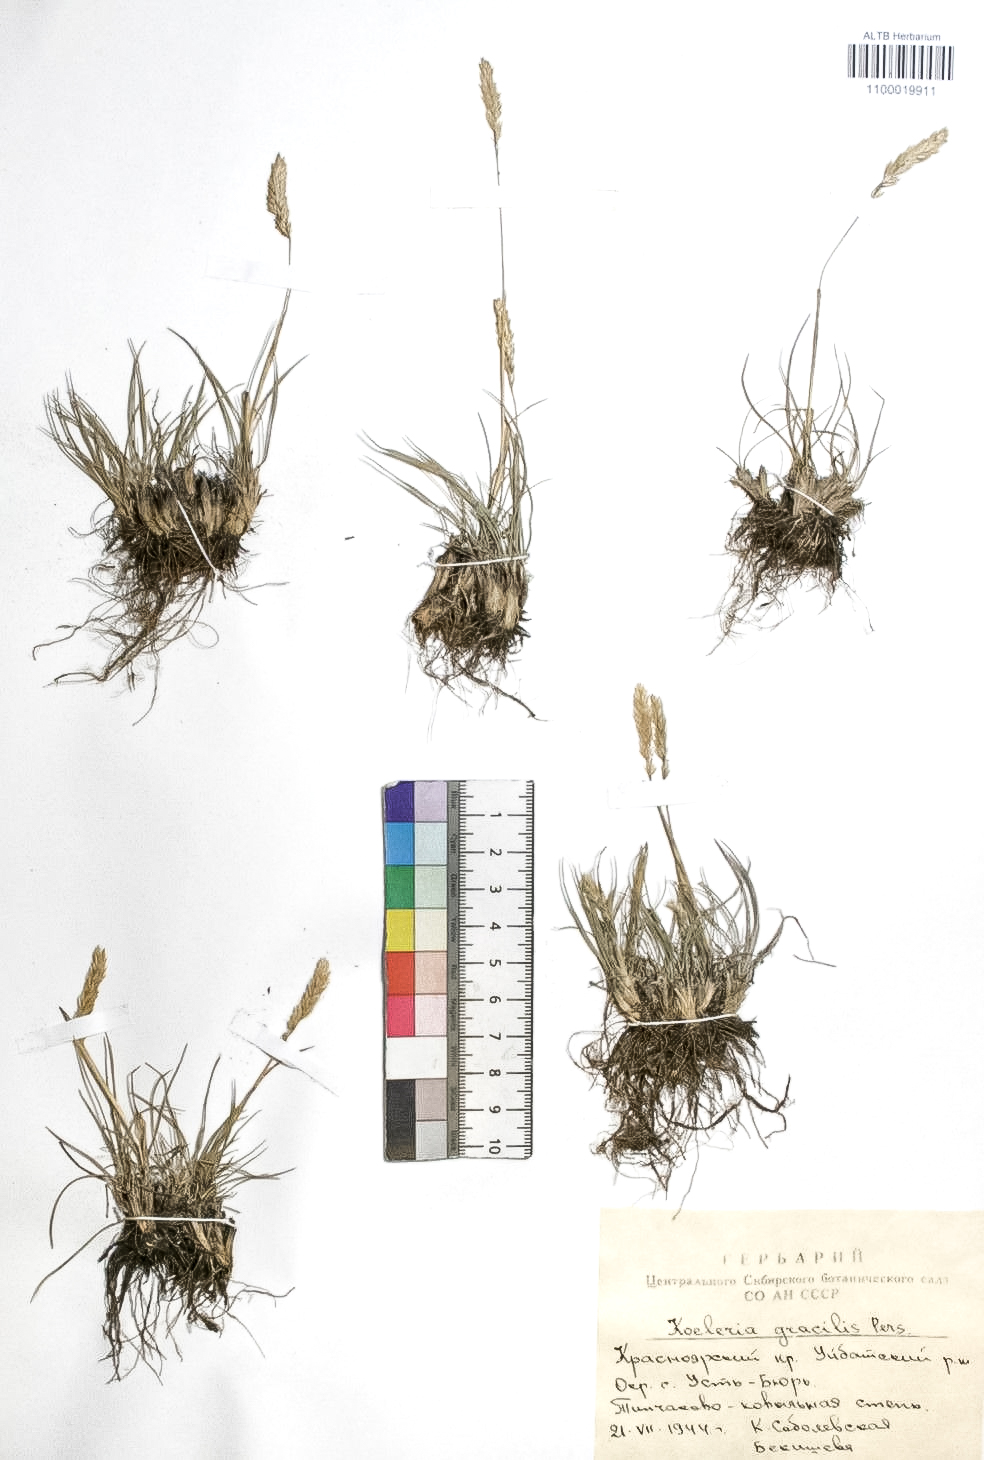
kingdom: Plantae
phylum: Tracheophyta
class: Liliopsida
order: Poales
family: Poaceae
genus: Koeleria
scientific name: Koeleria macrantha
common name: Crested hair-grass
